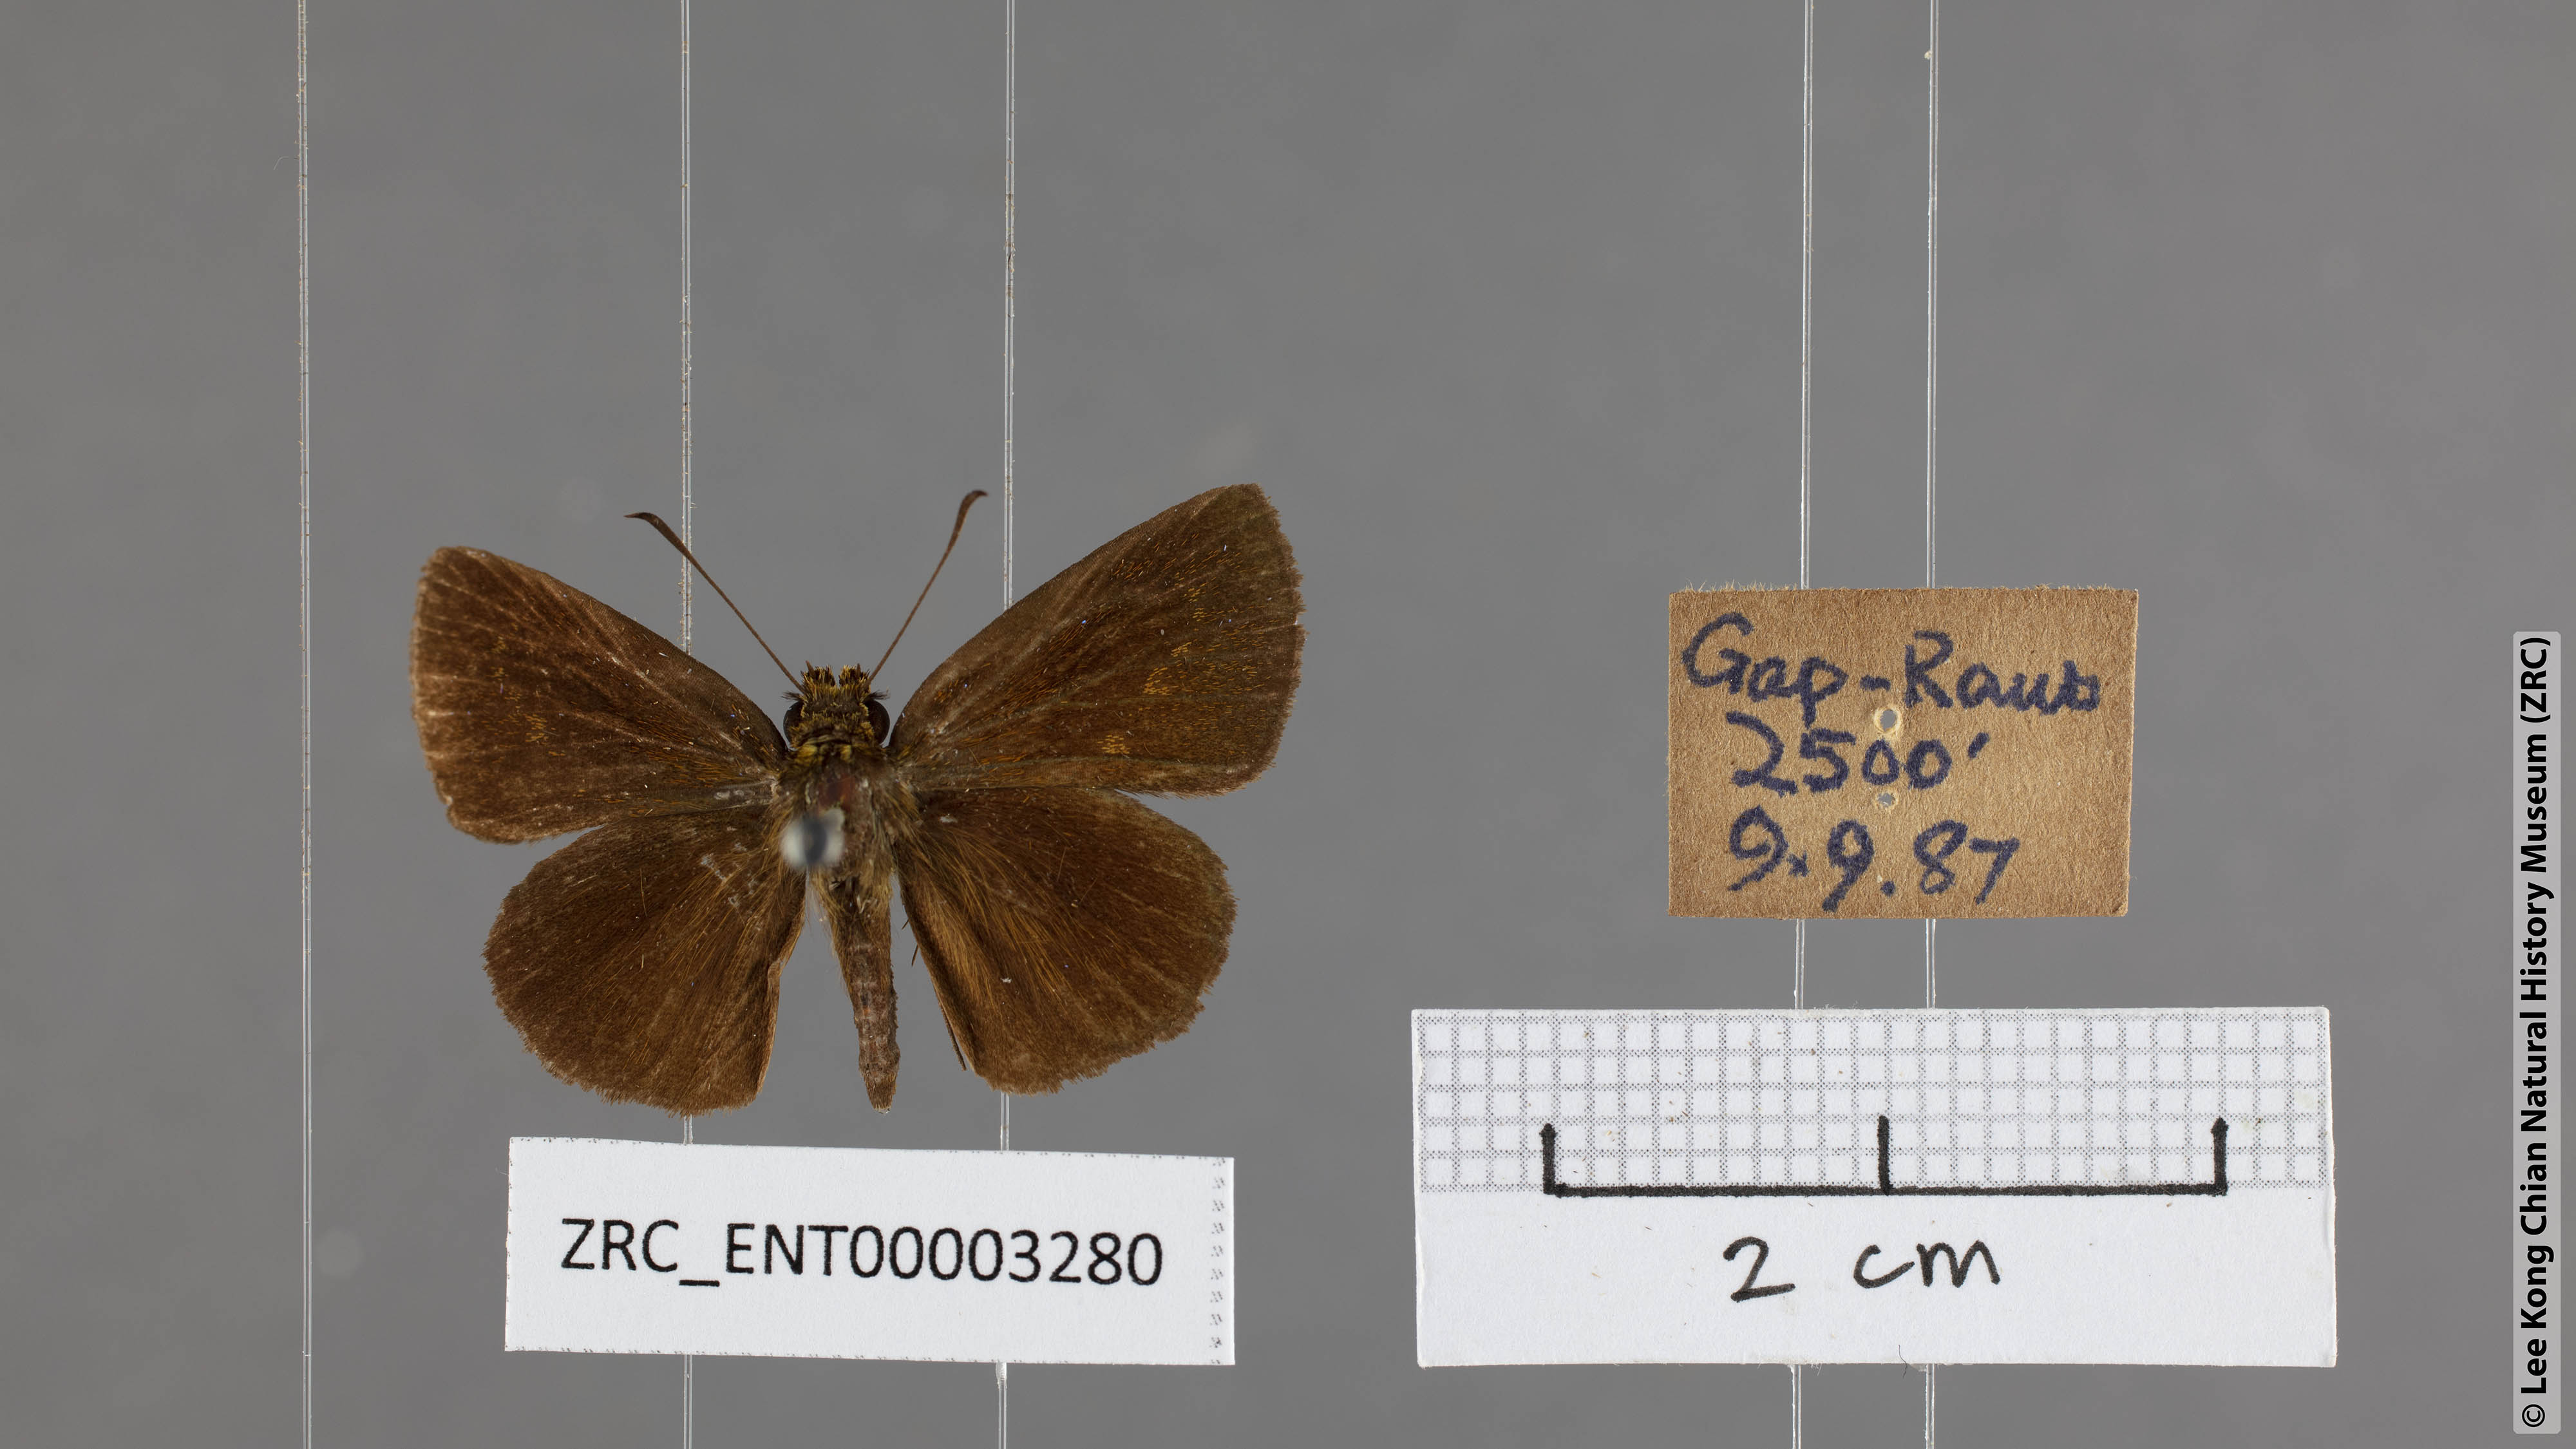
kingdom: Animalia
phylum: Arthropoda
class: Insecta
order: Lepidoptera
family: Hesperiidae
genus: Iambrix
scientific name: Iambrix salsala
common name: Chestnut bob
